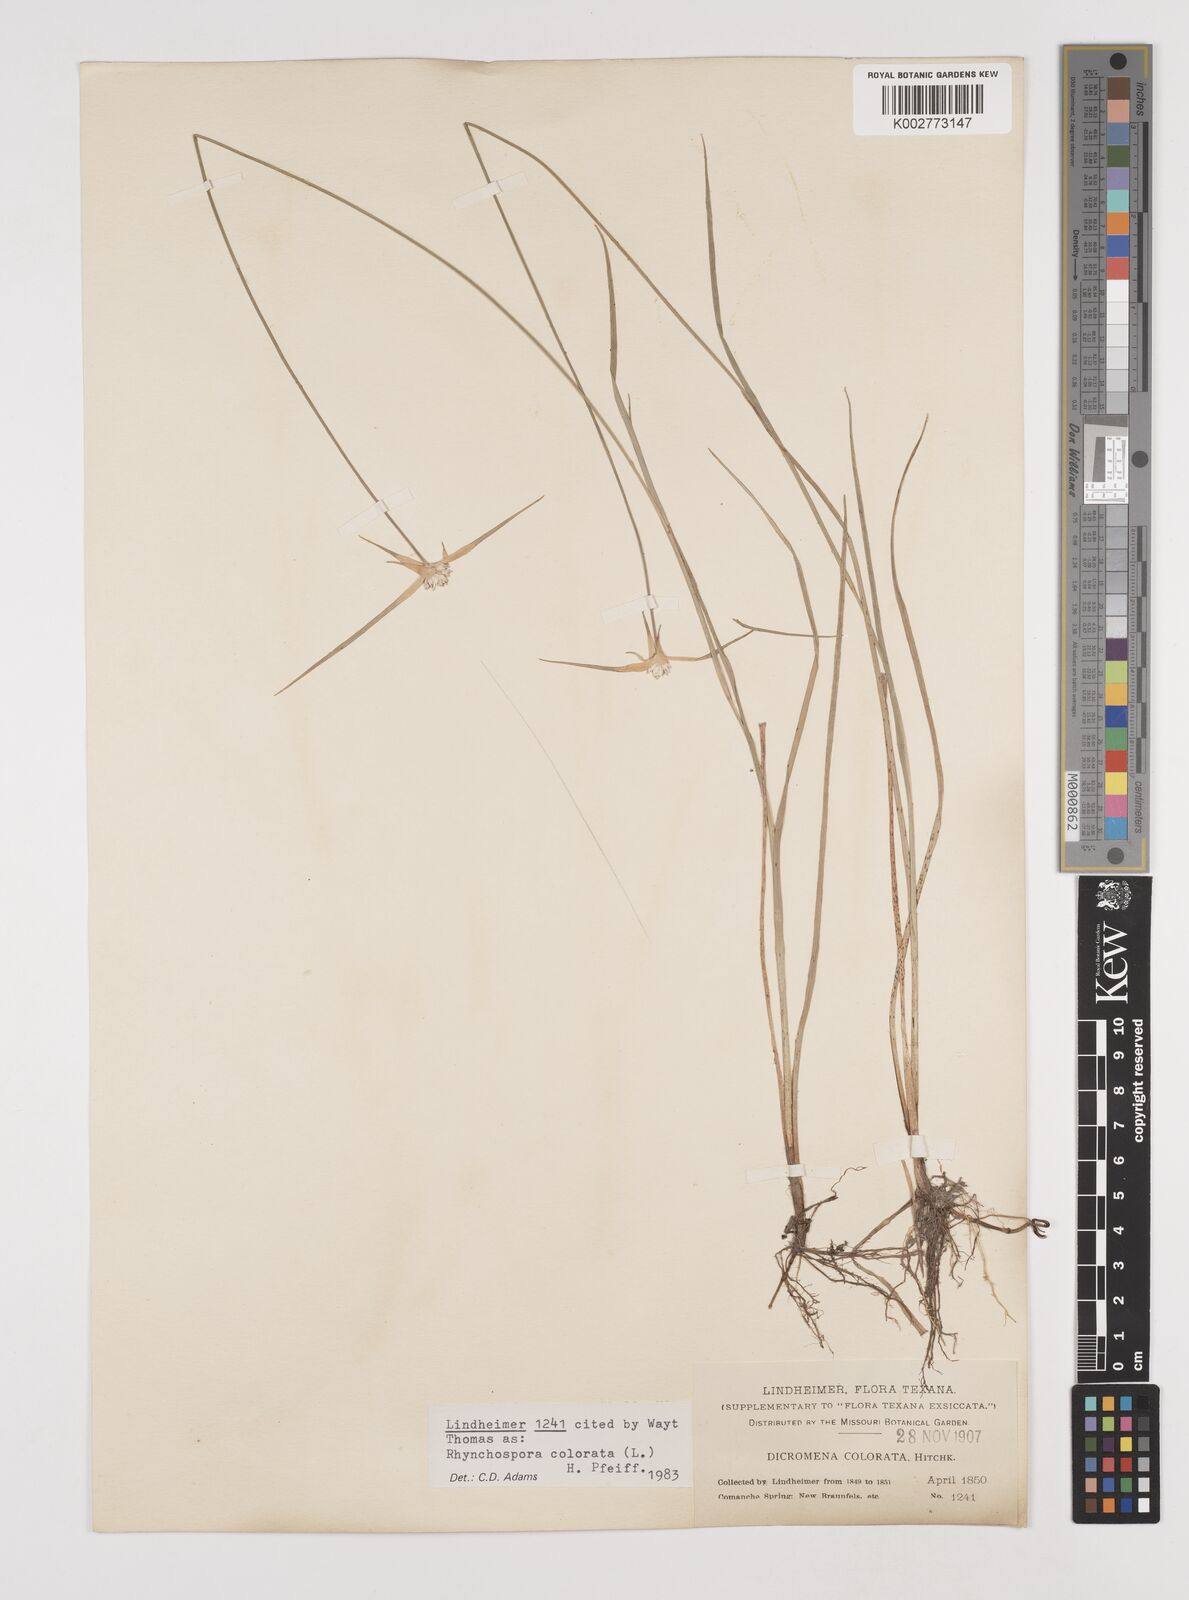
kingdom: Plantae
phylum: Tracheophyta
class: Liliopsida
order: Poales
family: Cyperaceae
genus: Rhynchospora
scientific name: Rhynchospora colorata
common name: Star sedge
